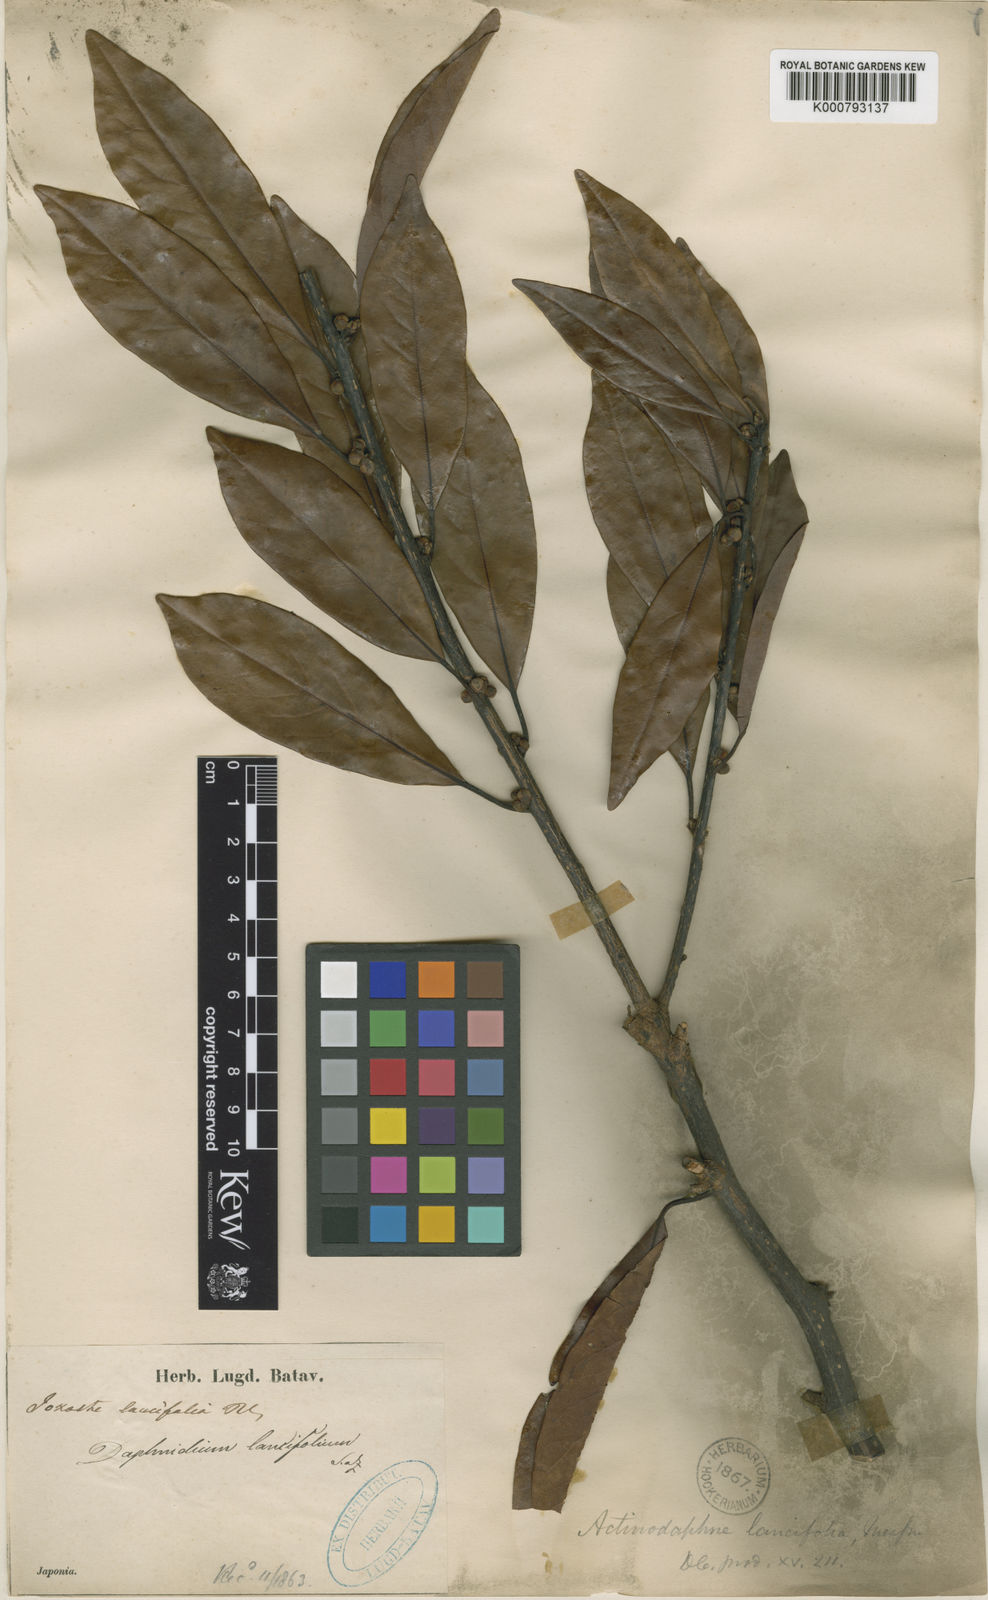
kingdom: Plantae
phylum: Tracheophyta
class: Magnoliopsida
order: Laurales
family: Lauraceae
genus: Litsea
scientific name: Litsea coreana
